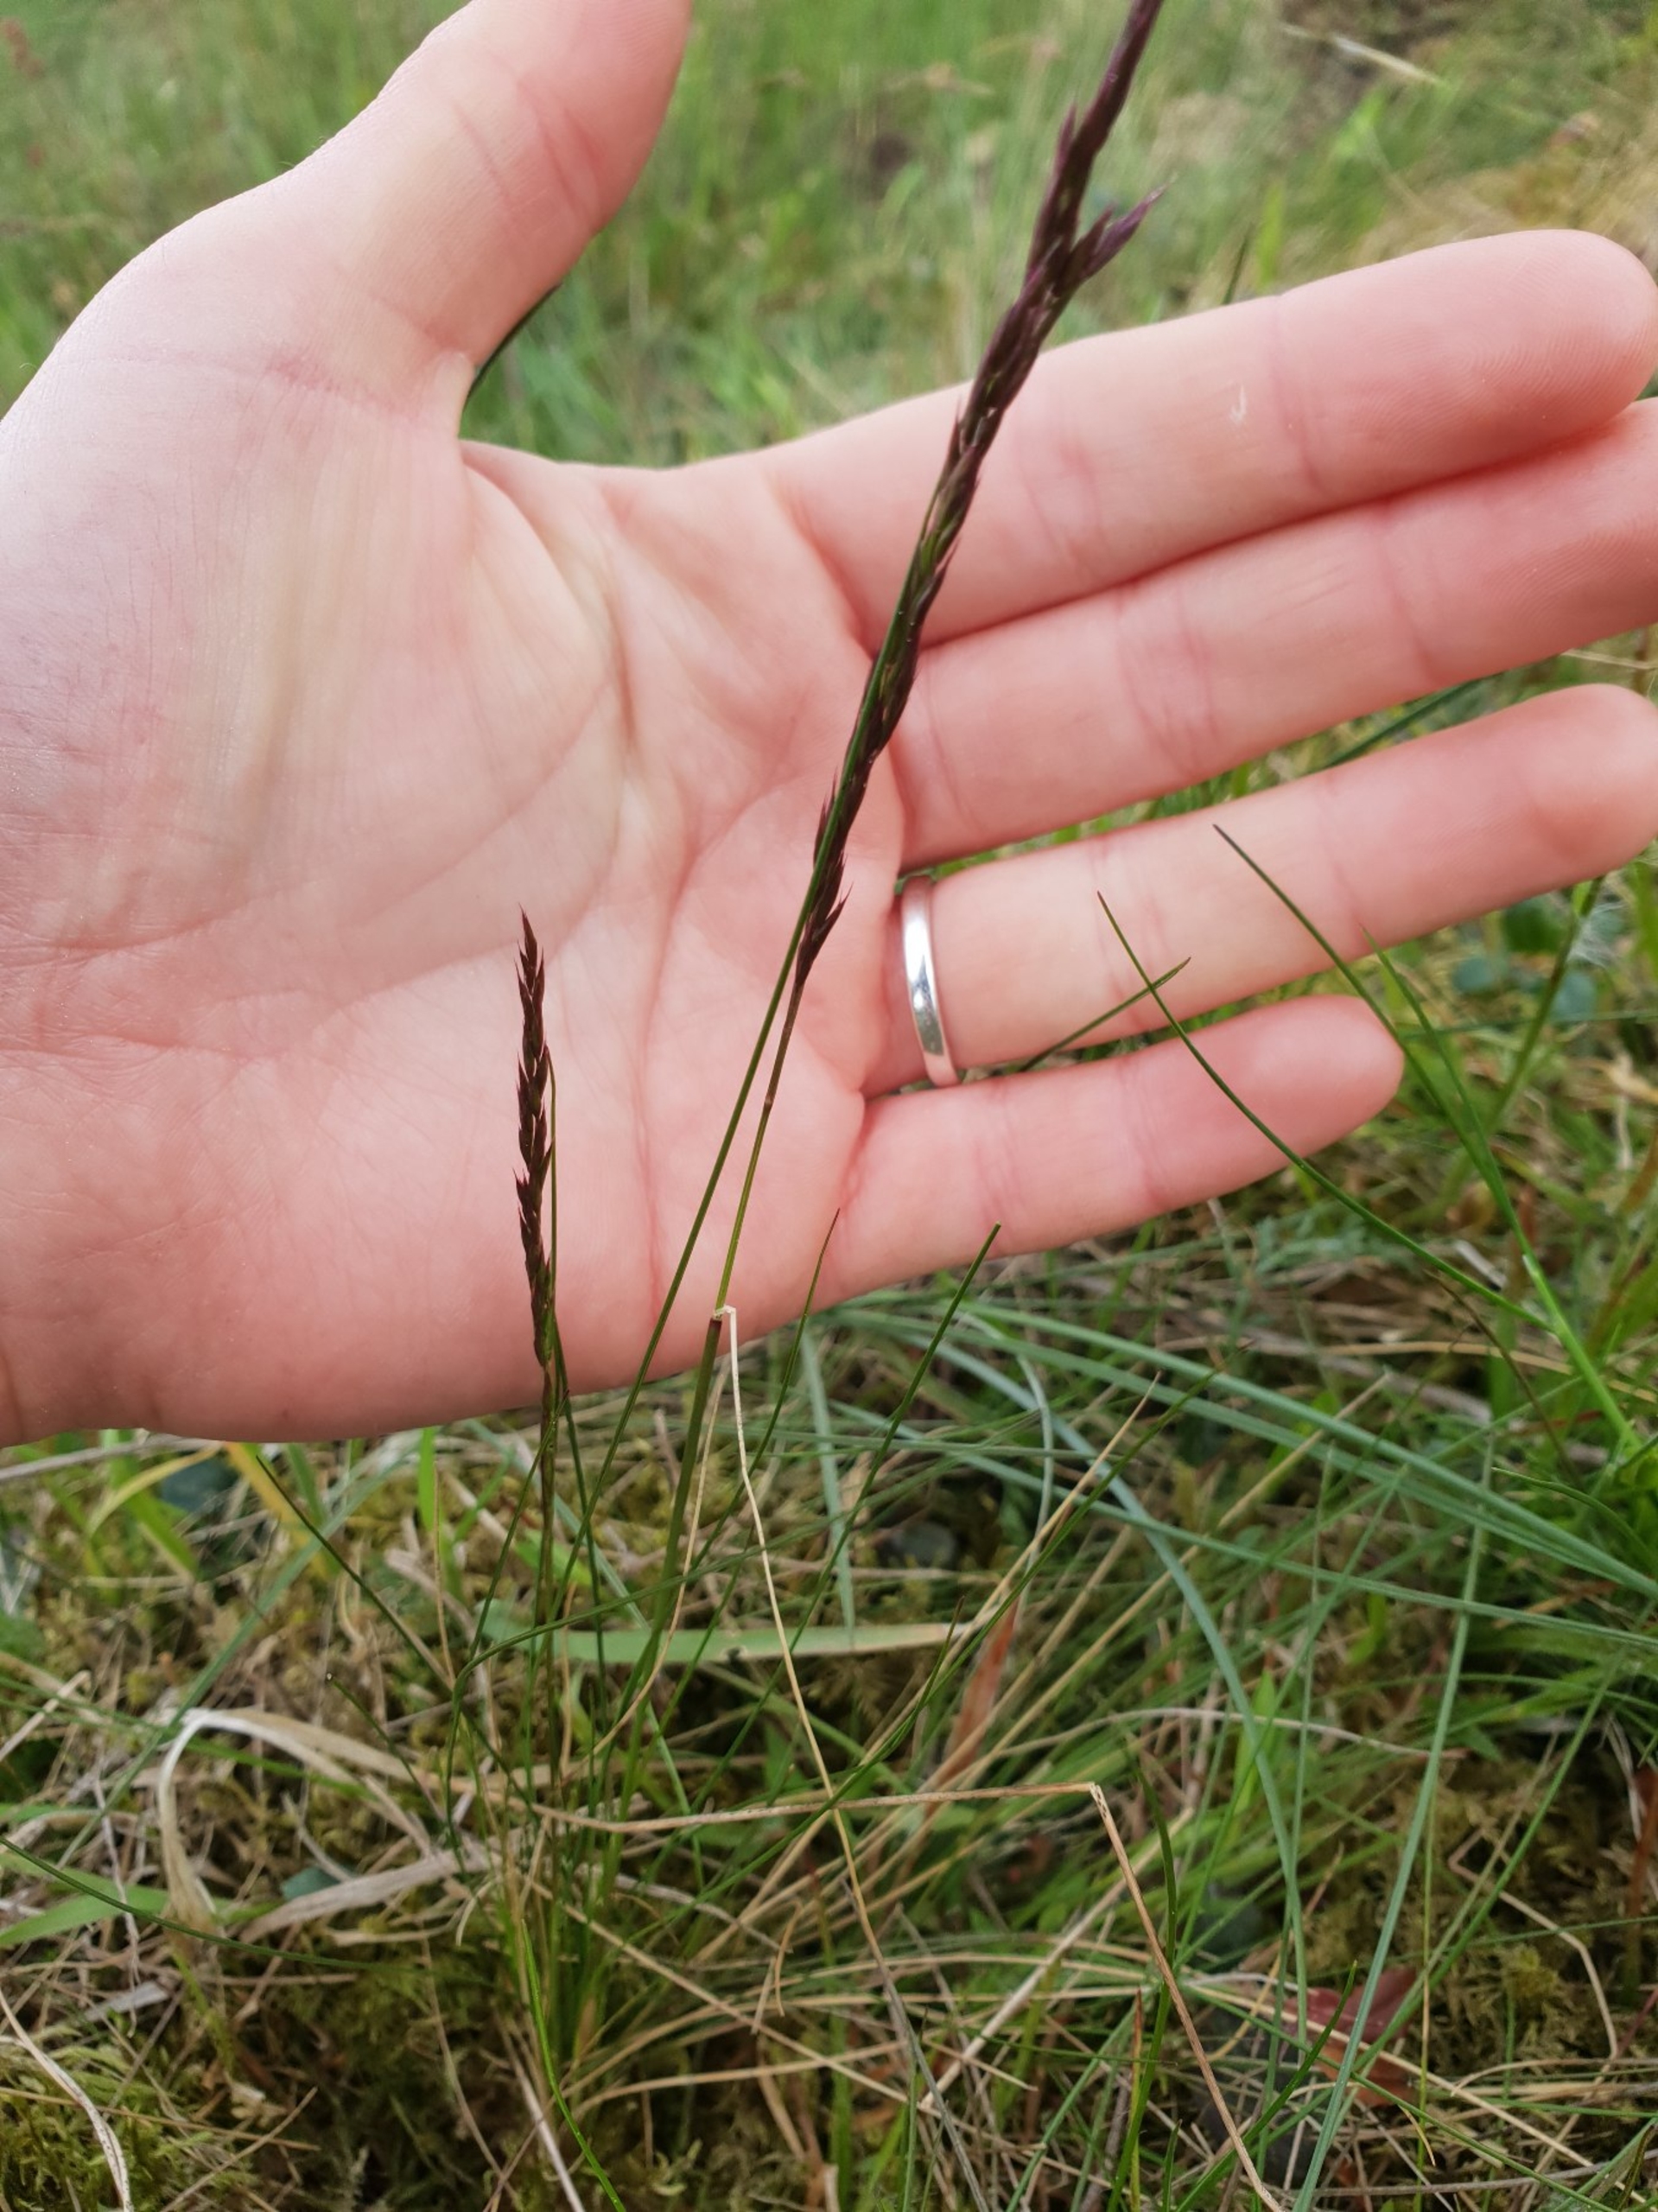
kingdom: Plantae
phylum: Tracheophyta
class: Liliopsida
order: Poales
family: Poaceae
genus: Festuca
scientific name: Festuca rubra
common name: Rød svingel
